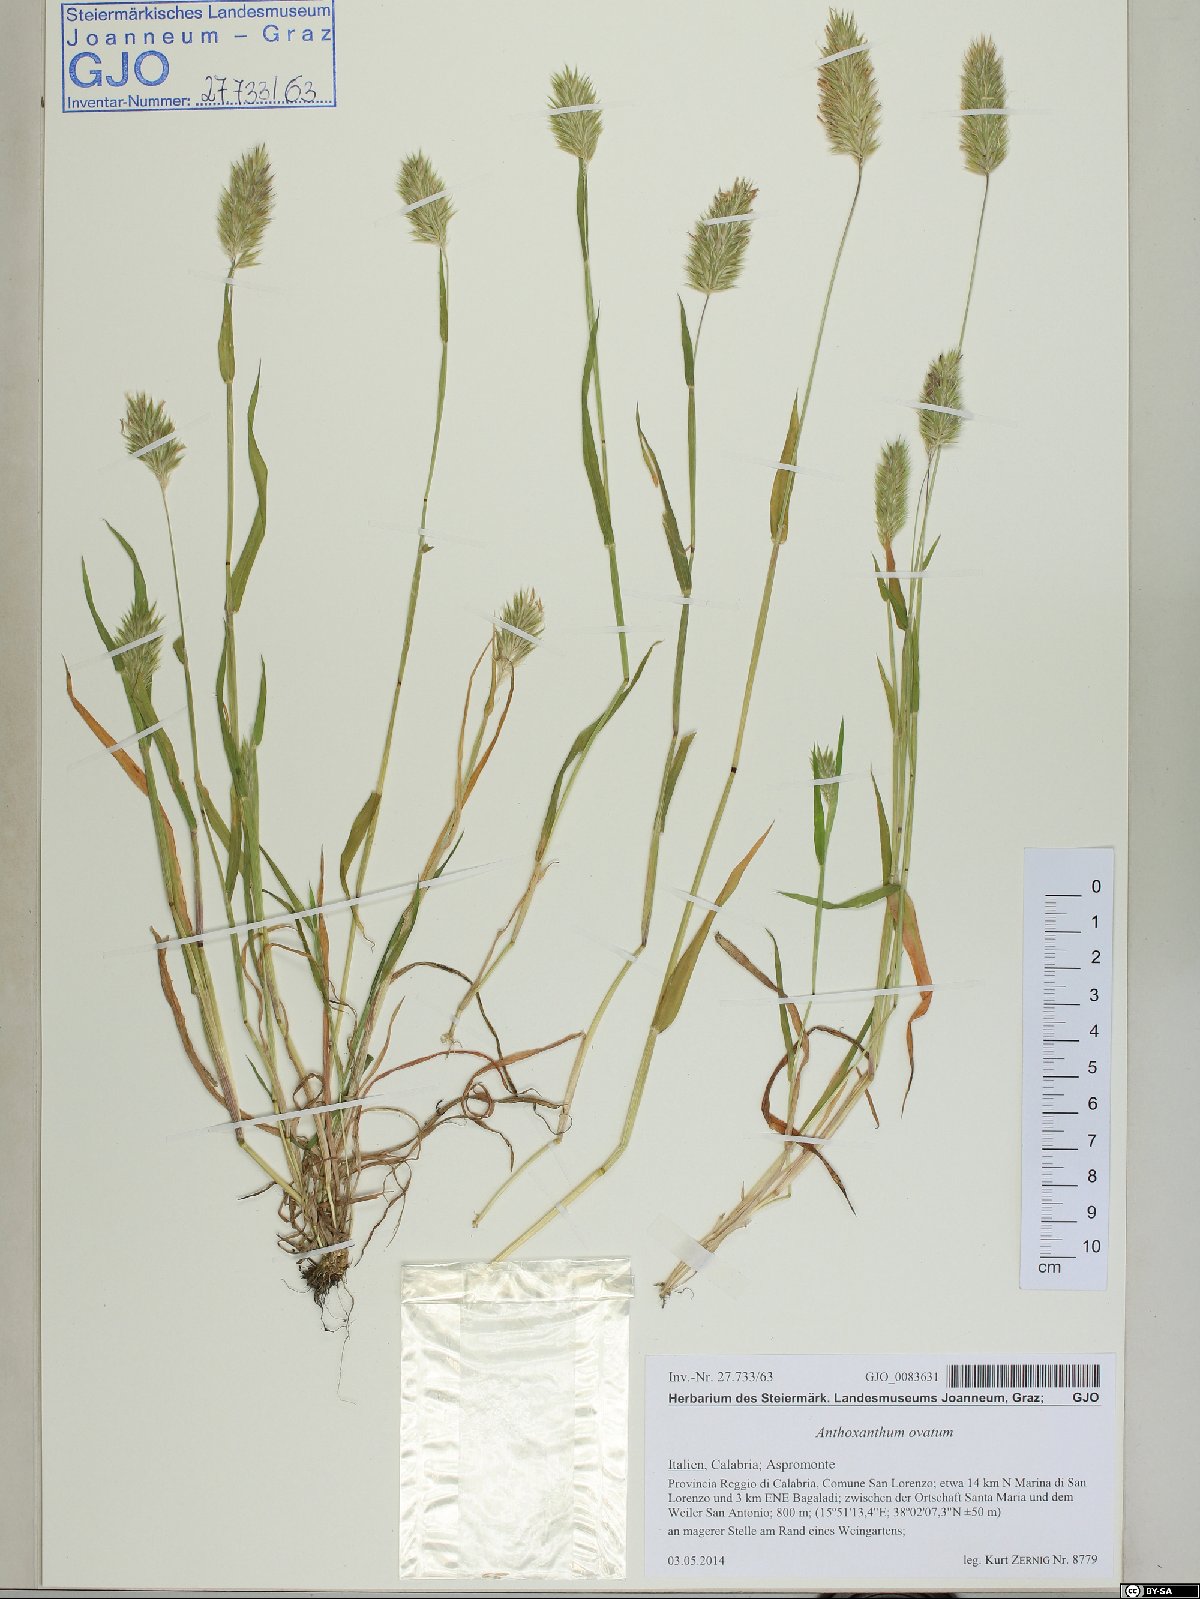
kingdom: Plantae
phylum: Tracheophyta
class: Liliopsida
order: Poales
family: Poaceae
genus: Anthoxanthum
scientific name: Anthoxanthum ovatum
